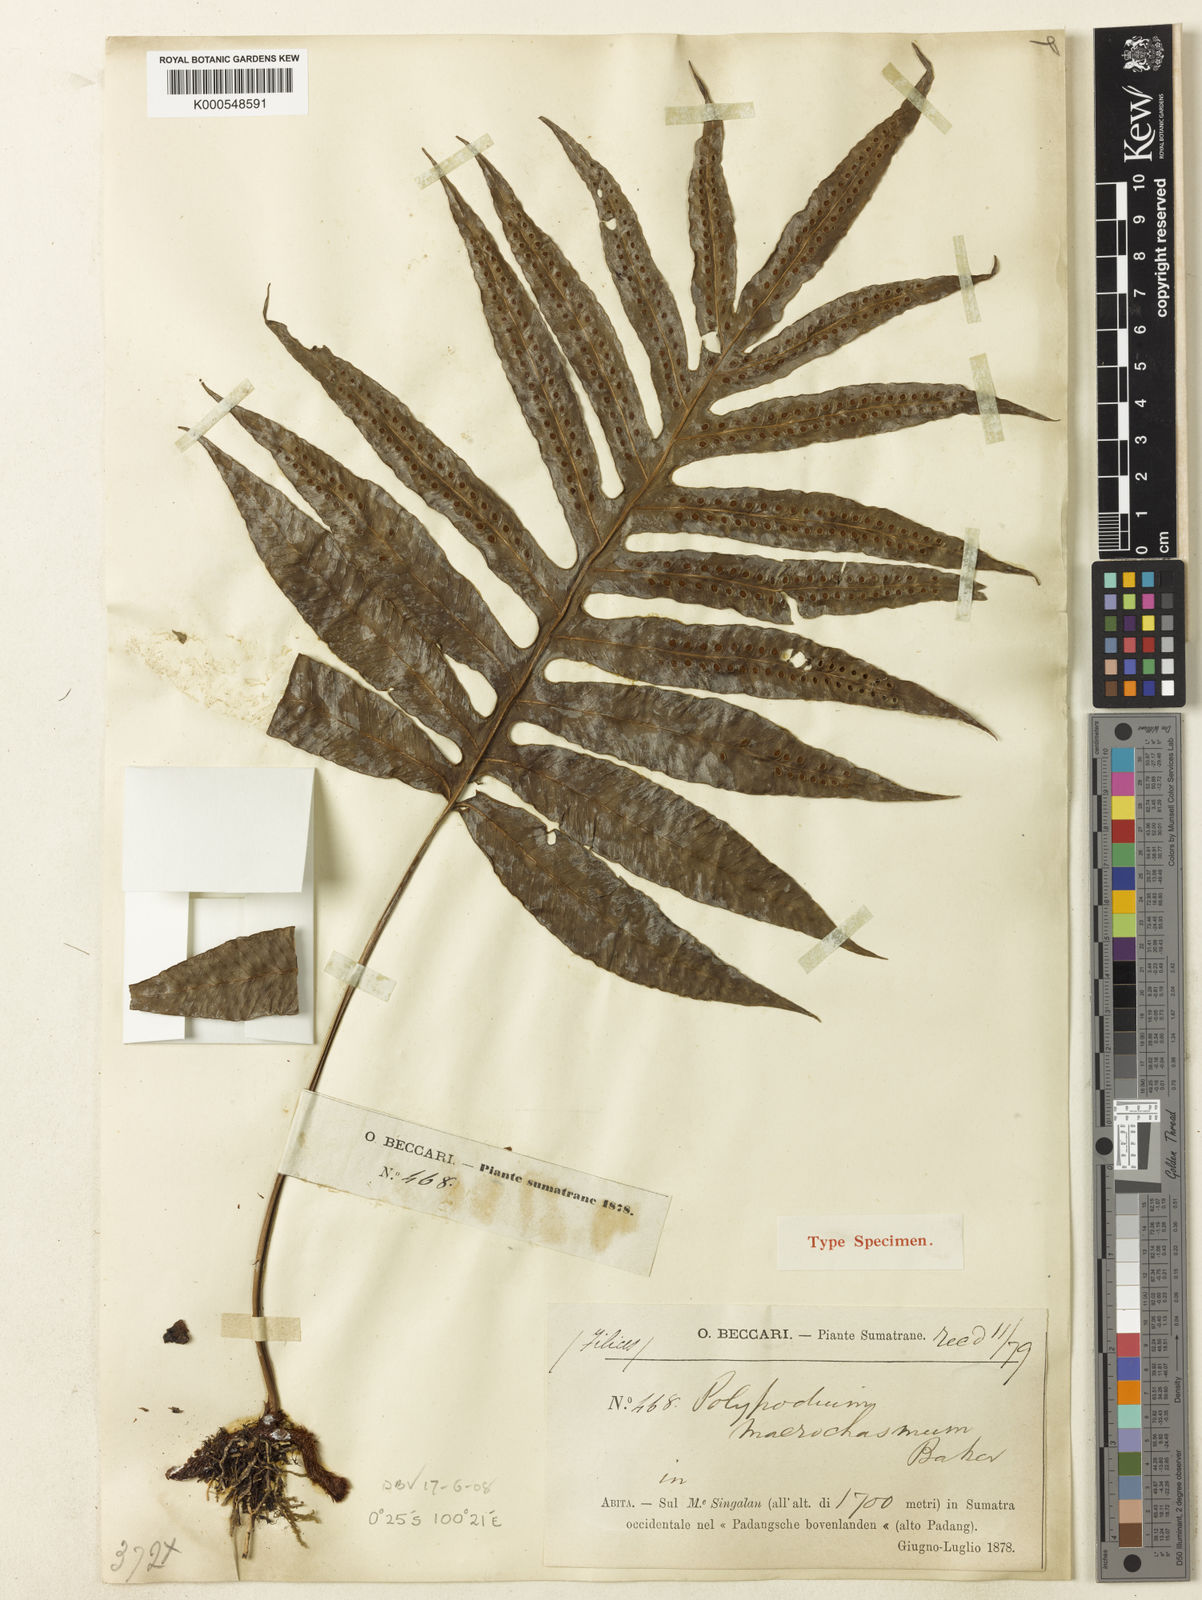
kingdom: Plantae
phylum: Tracheophyta
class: Polypodiopsida
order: Polypodiales
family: Polypodiaceae
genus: Selliguea
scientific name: Selliguea
